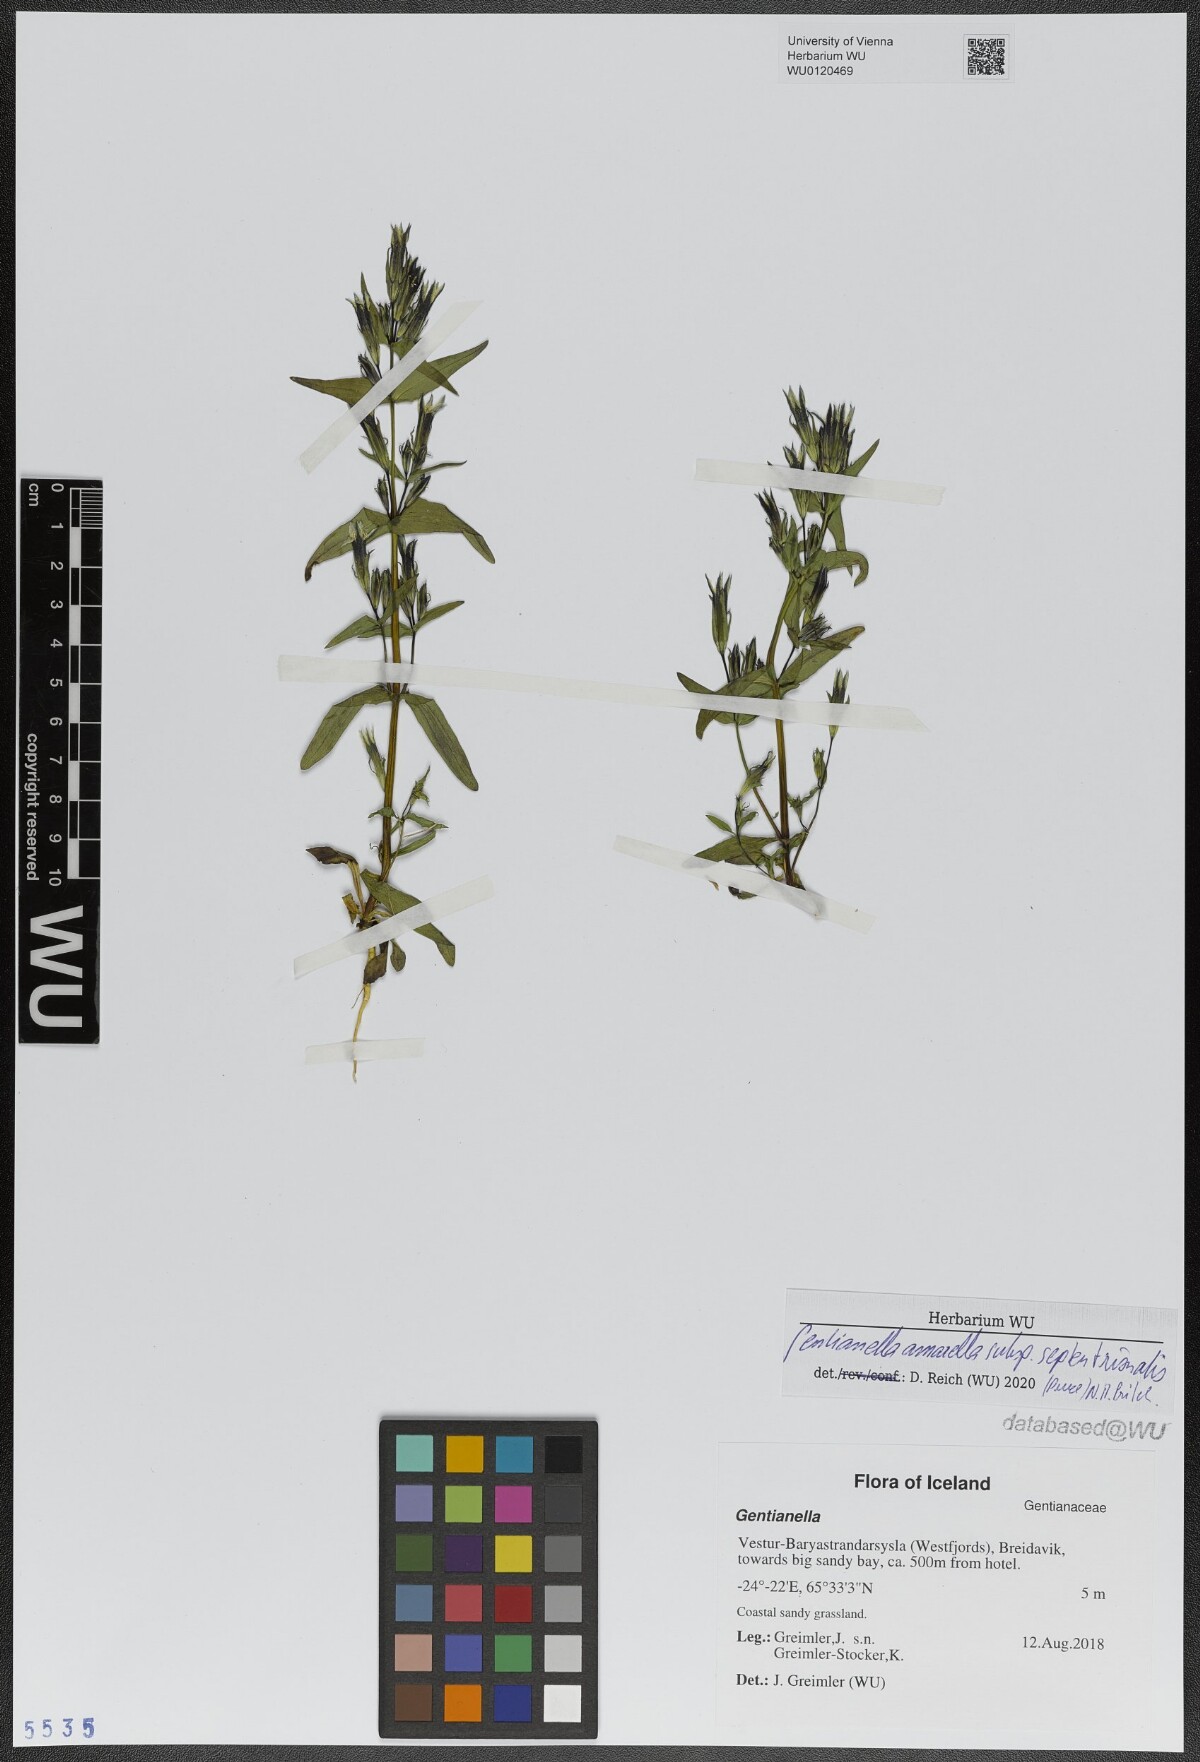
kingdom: Plantae
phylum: Tracheophyta
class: Magnoliopsida
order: Gentianales
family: Gentianaceae
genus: Gentianella
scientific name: Gentianella amarella
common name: Autumn gentian
